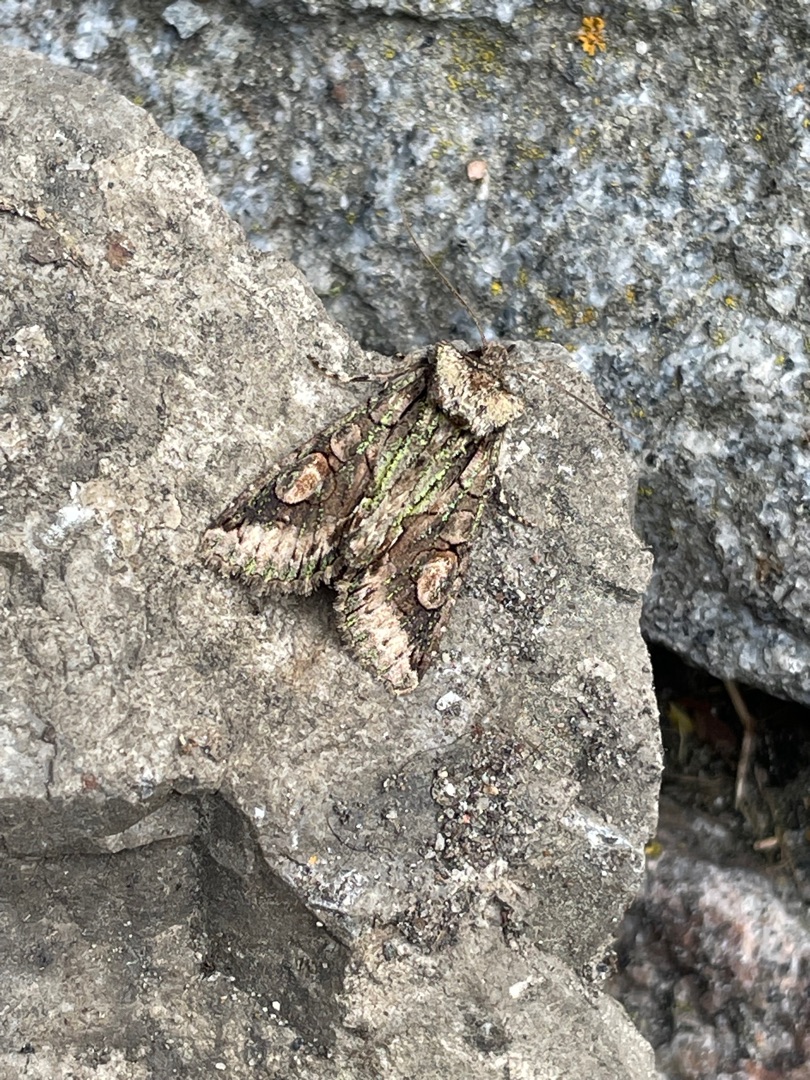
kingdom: Animalia
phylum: Arthropoda
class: Insecta
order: Lepidoptera
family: Noctuidae
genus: Allophyes
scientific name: Allophyes oxyacanthae
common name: Tjørneugle
